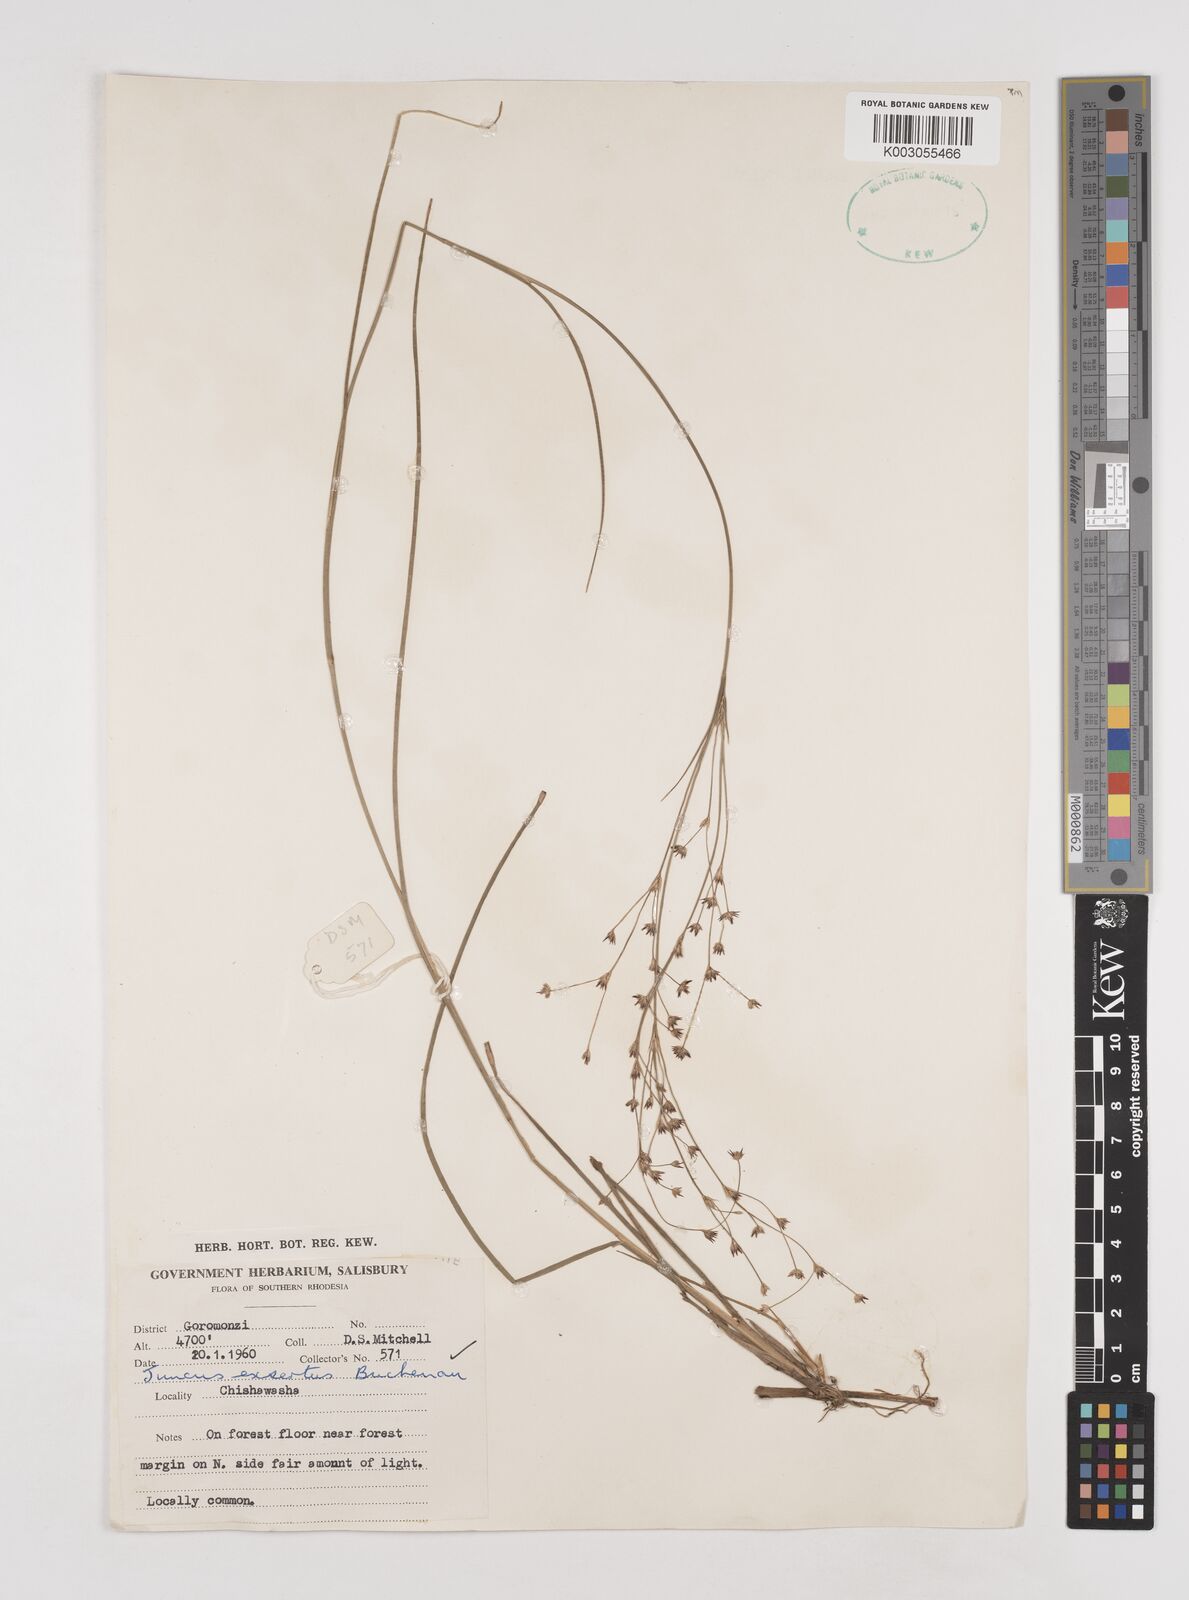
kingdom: Plantae
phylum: Tracheophyta
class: Liliopsida
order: Poales
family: Juncaceae
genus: Juncus
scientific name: Juncus exsertus
